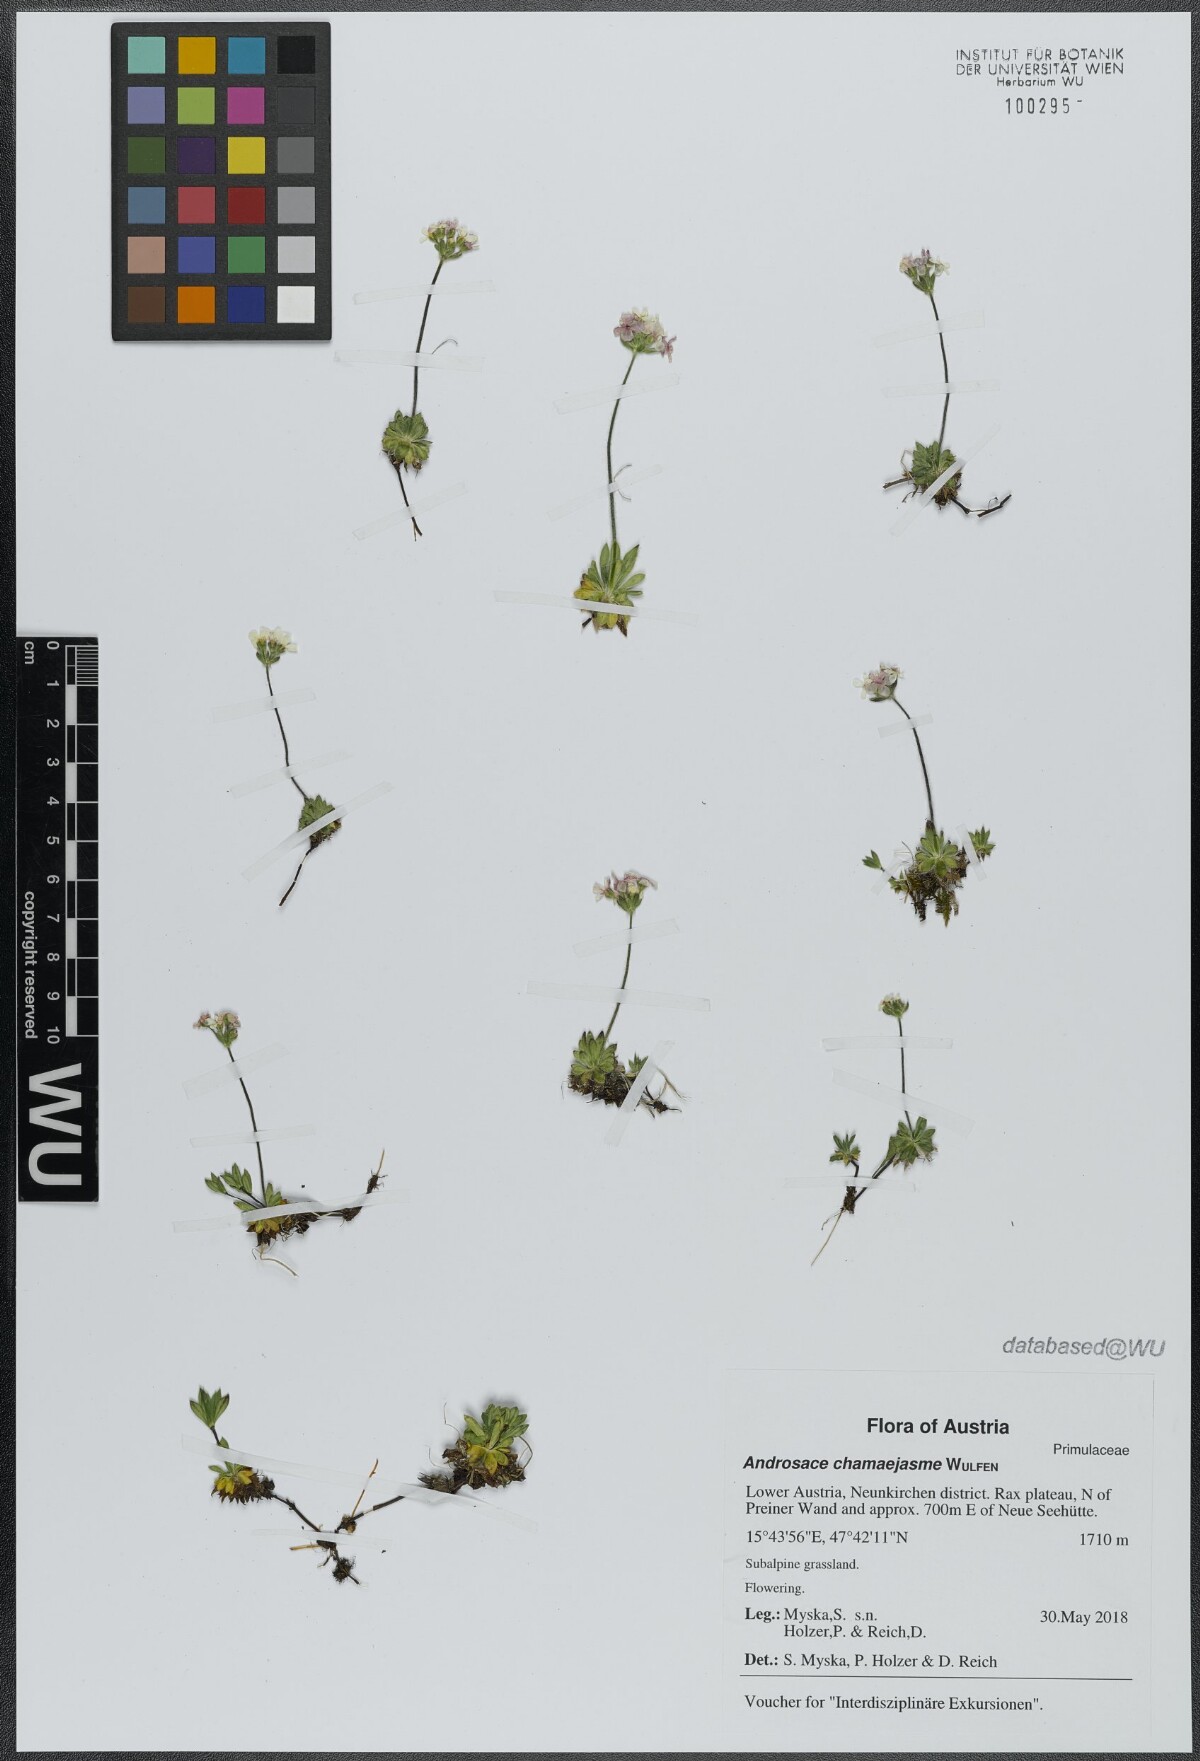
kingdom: Plantae
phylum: Tracheophyta
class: Magnoliopsida
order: Ericales
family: Primulaceae
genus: Androsace
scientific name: Androsace chamaejasme
